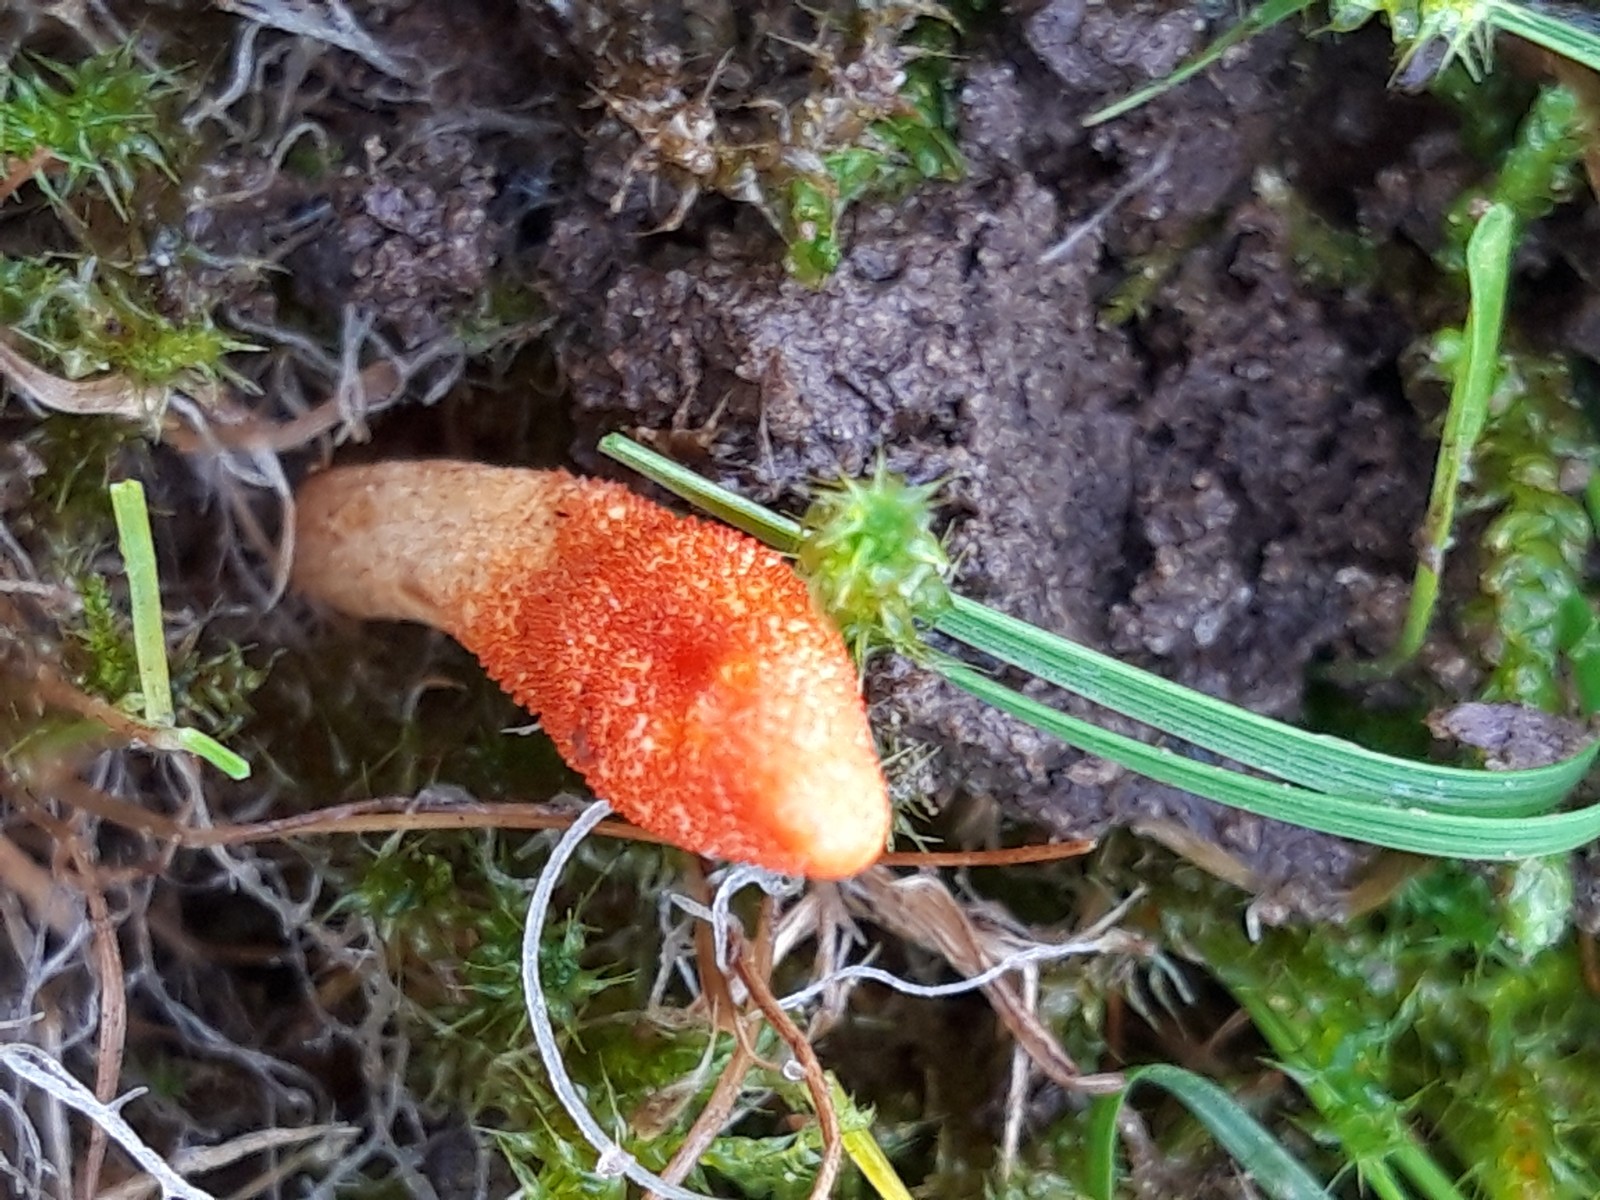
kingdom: Fungi
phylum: Ascomycota
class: Sordariomycetes
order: Hypocreales
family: Cordycipitaceae
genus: Cordyceps
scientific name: Cordyceps militaris
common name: puppe-snyltekølle
